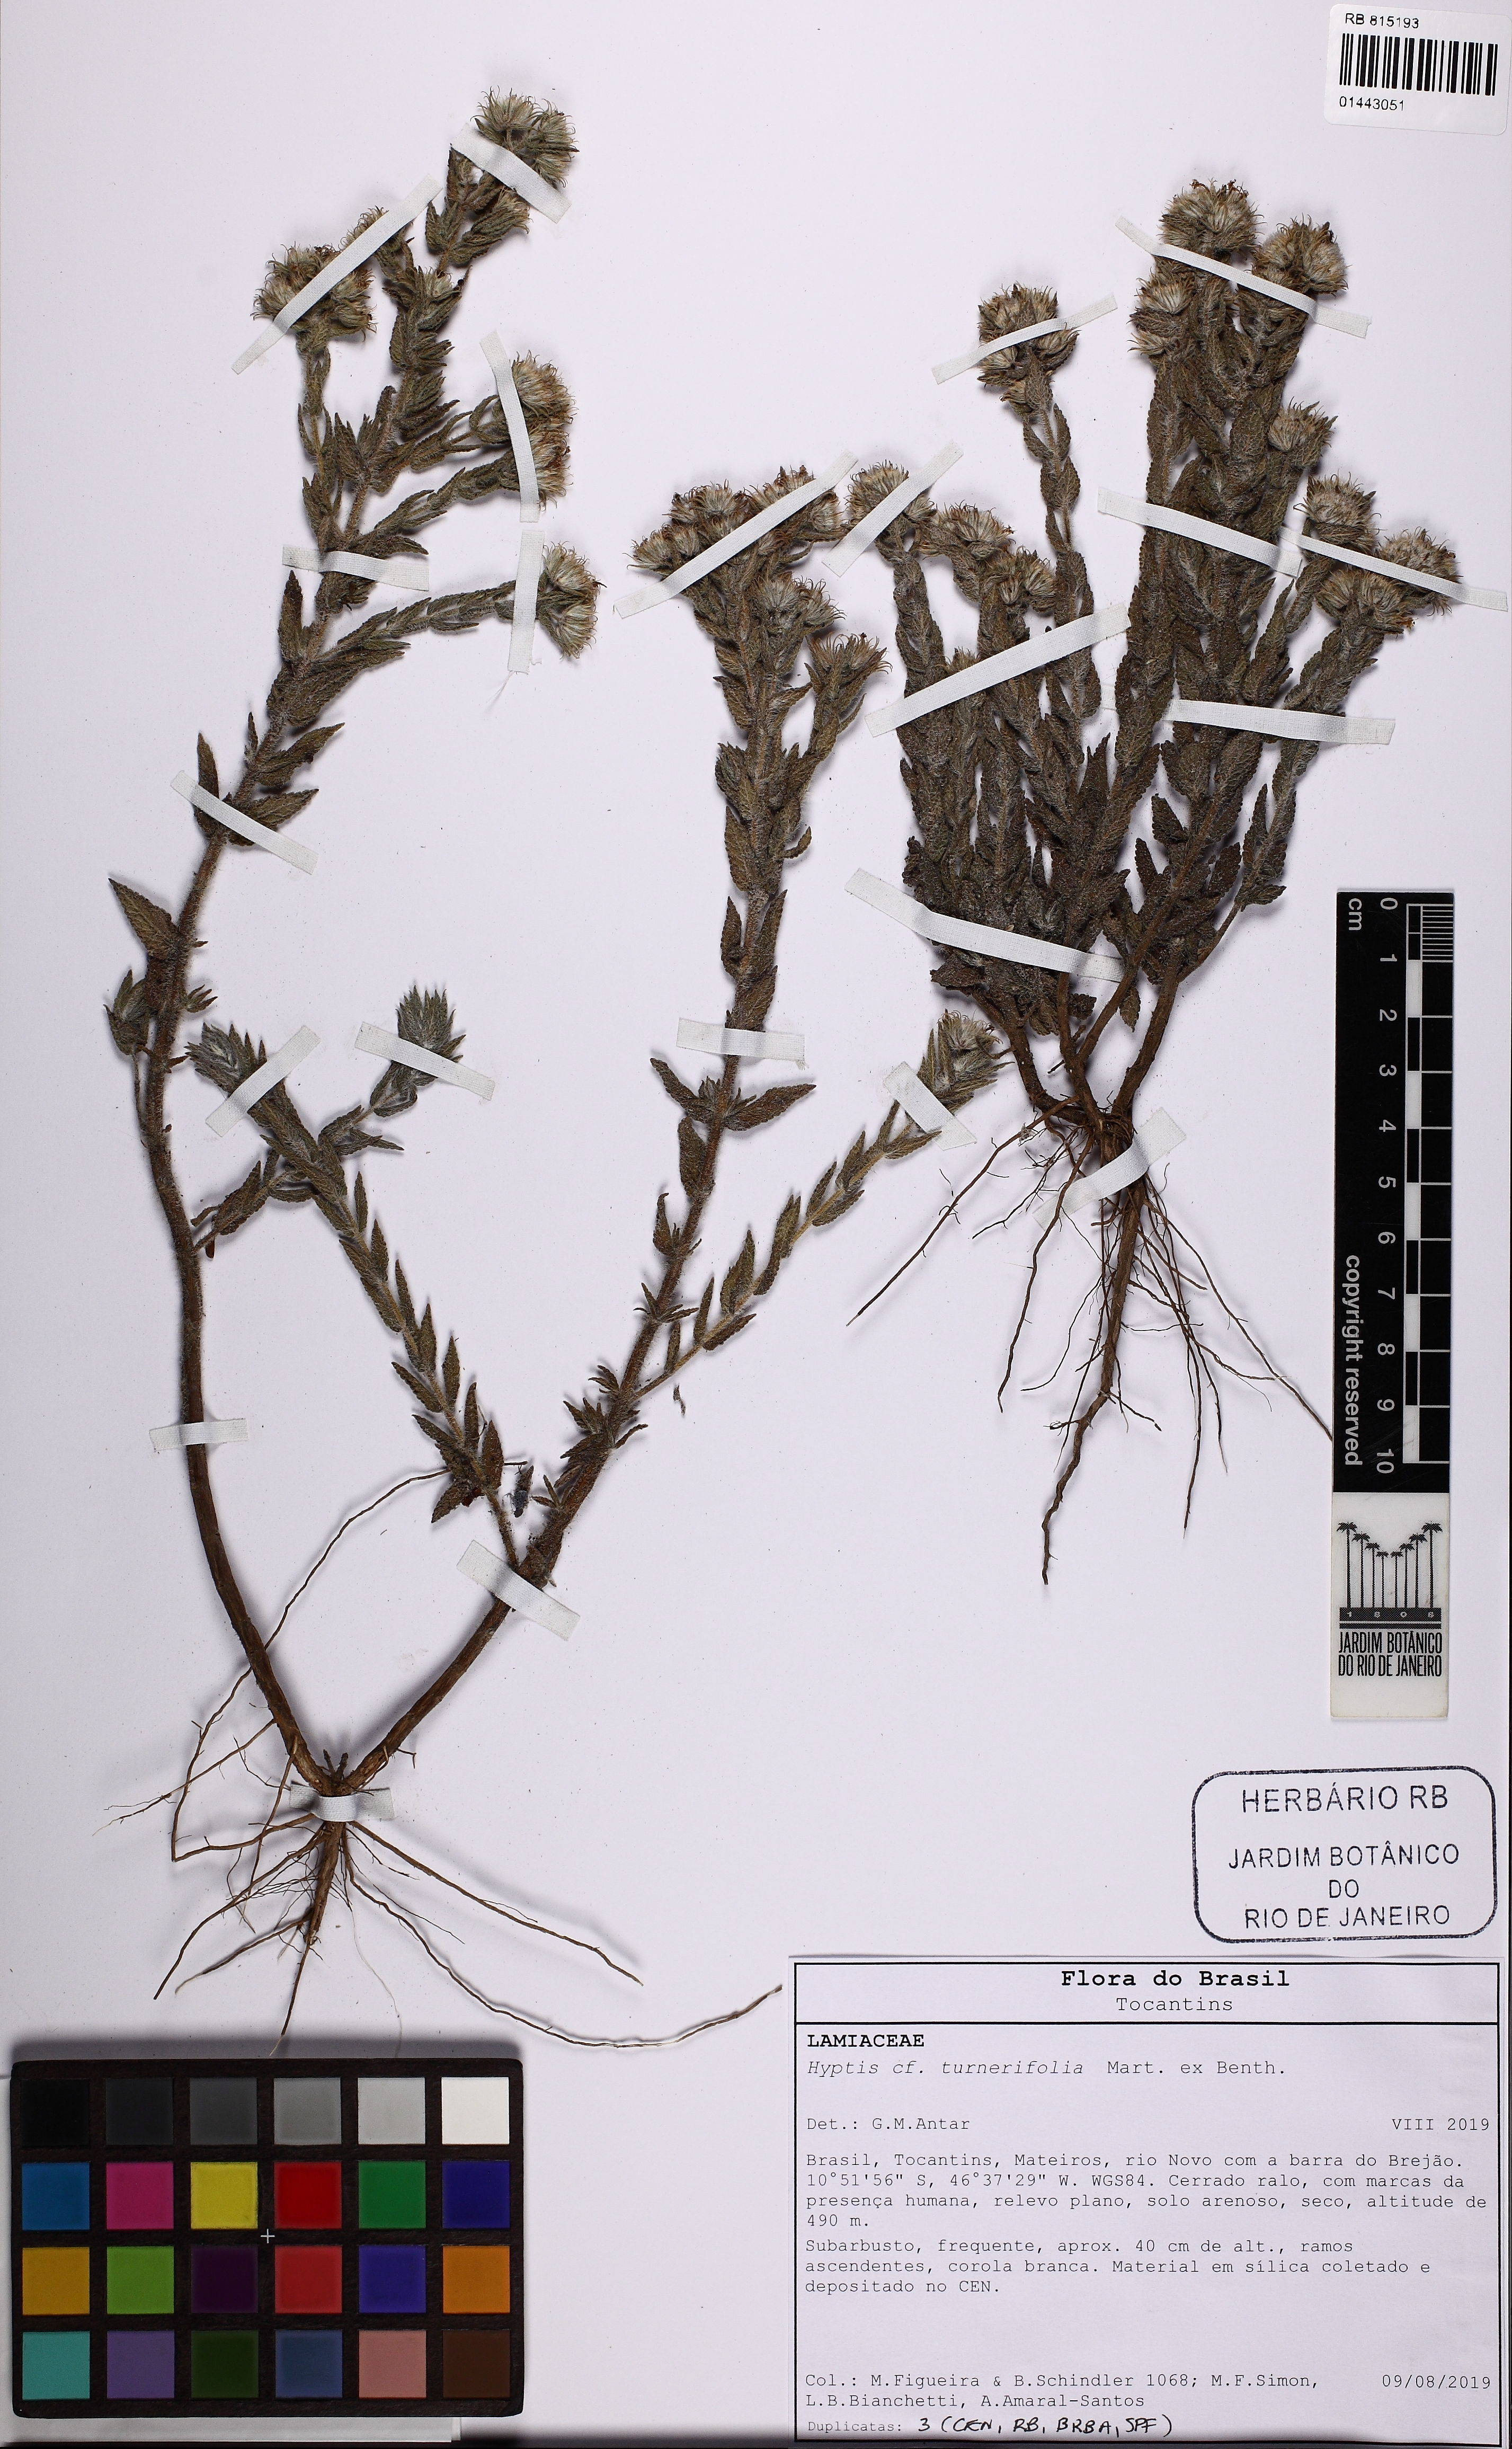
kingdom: Plantae
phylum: Tracheophyta
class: Magnoliopsida
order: Lamiales
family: Lamiaceae
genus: Hyptis
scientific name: Hyptis turnerifolia
